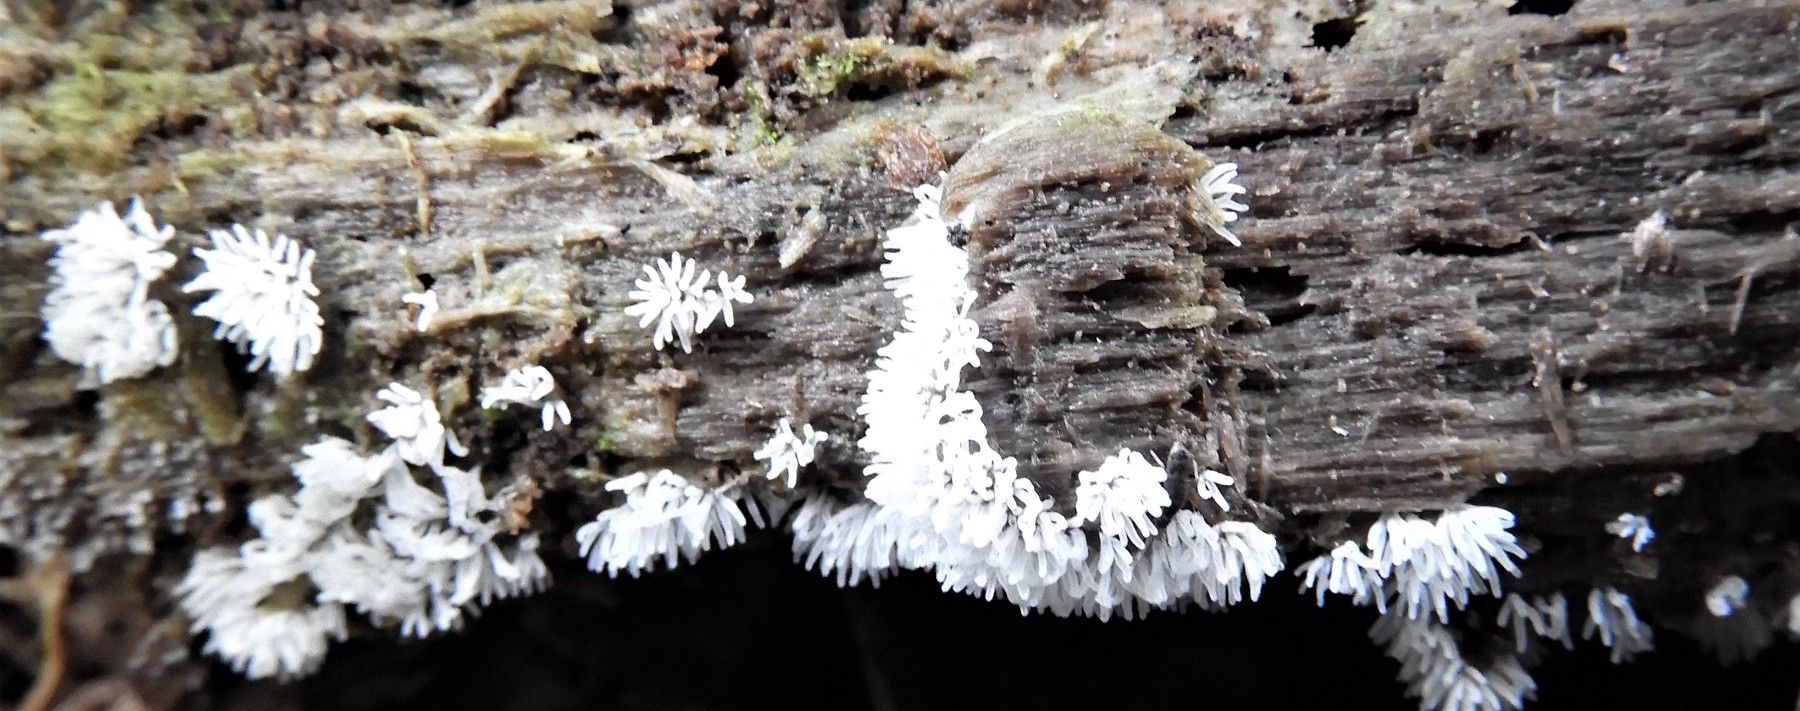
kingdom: Protozoa
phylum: Mycetozoa
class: Protosteliomycetes
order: Ceratiomyxales
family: Ceratiomyxaceae
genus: Ceratiomyxa
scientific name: Ceratiomyxa fruticulosa
